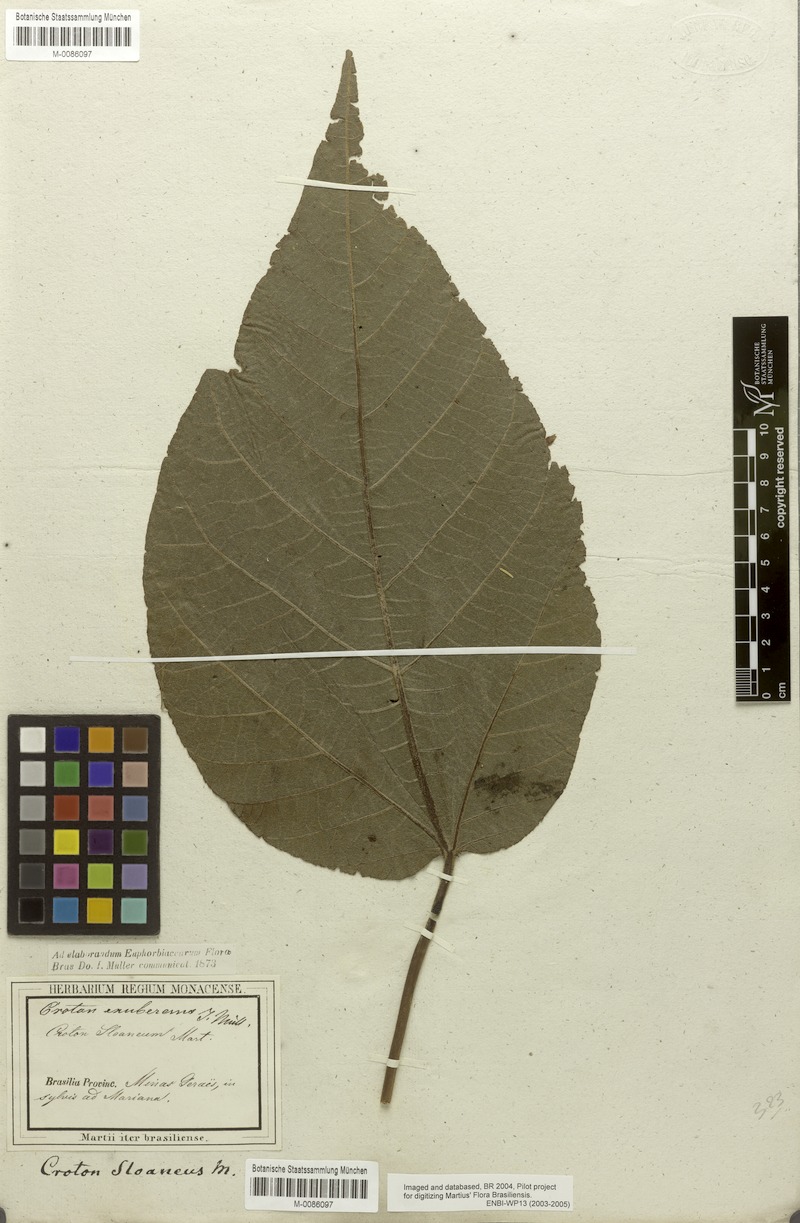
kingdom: Plantae
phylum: Tracheophyta
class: Magnoliopsida
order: Malpighiales
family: Euphorbiaceae
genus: Croton
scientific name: Croton exuberans
